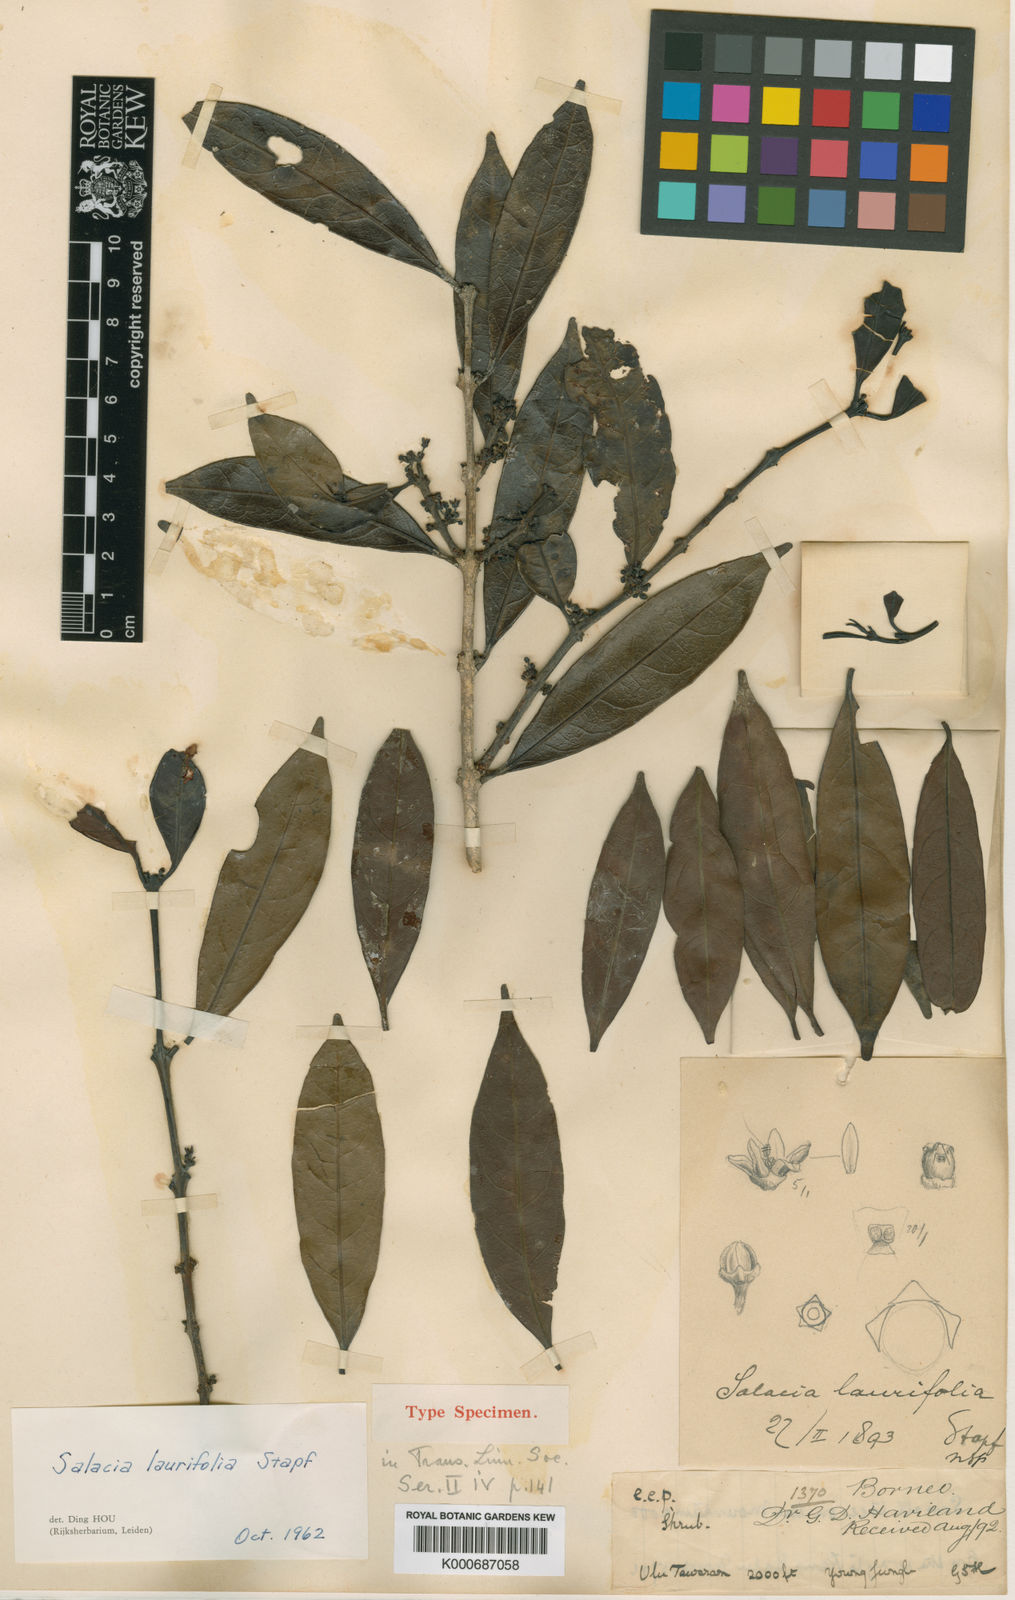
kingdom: Plantae
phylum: Tracheophyta
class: Magnoliopsida
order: Celastrales
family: Celastraceae
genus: Salacia
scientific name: Salacia laurifolia
